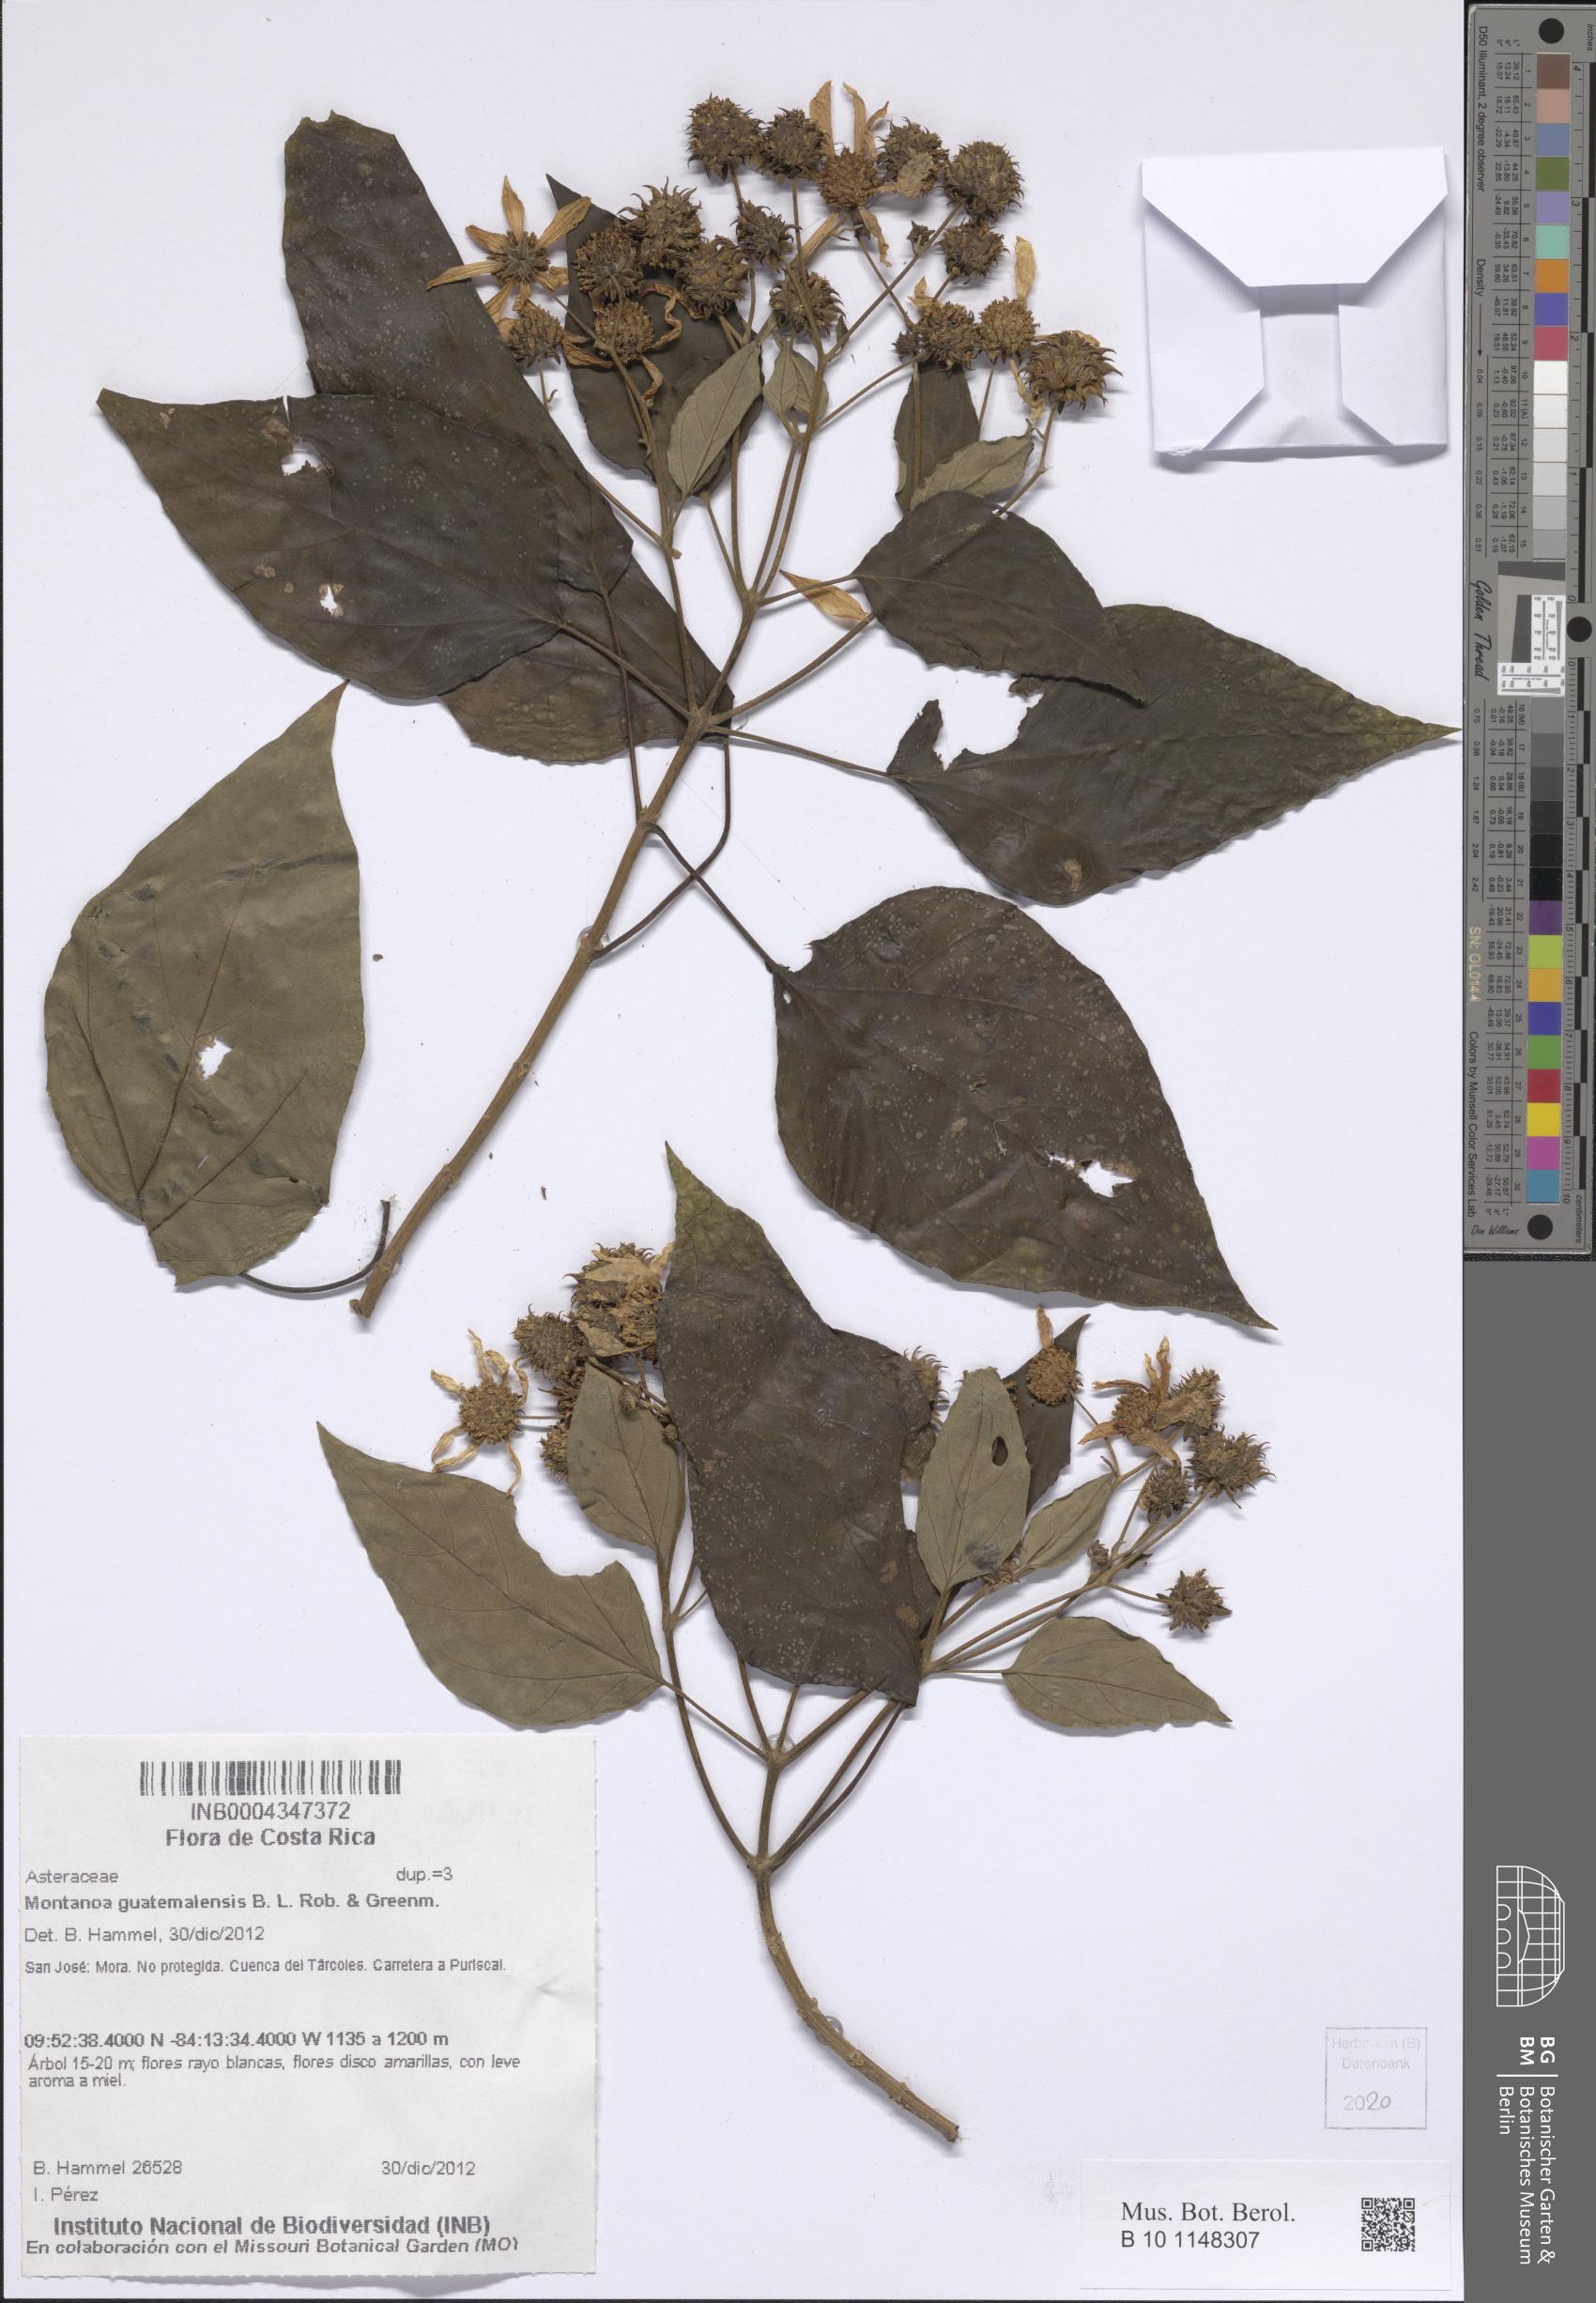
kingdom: Plantae
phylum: Tracheophyta
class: Magnoliopsida
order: Asterales
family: Asteraceae
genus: Montanoa
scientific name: Montanoa guatemalensis
